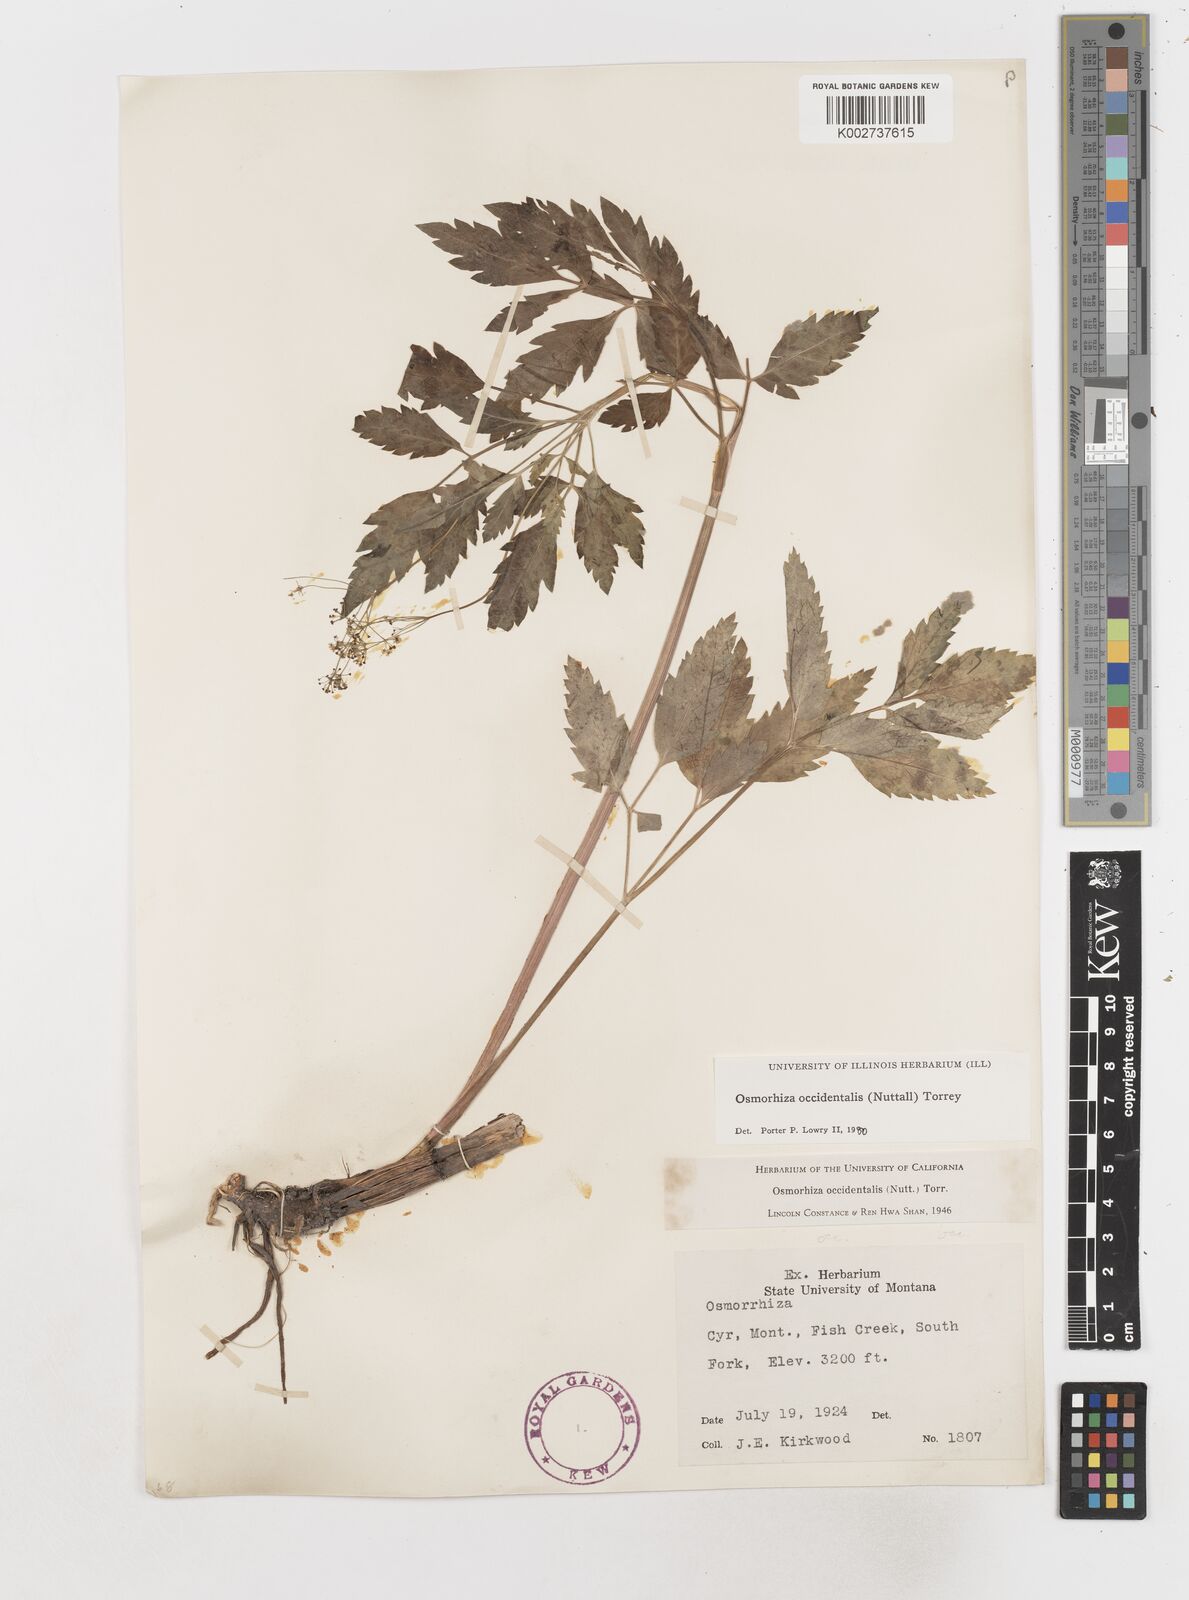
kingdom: Plantae
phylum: Tracheophyta
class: Magnoliopsida
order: Apiales
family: Apiaceae
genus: Osmorhiza
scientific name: Osmorhiza occidentalis
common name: Western sweet cicely
